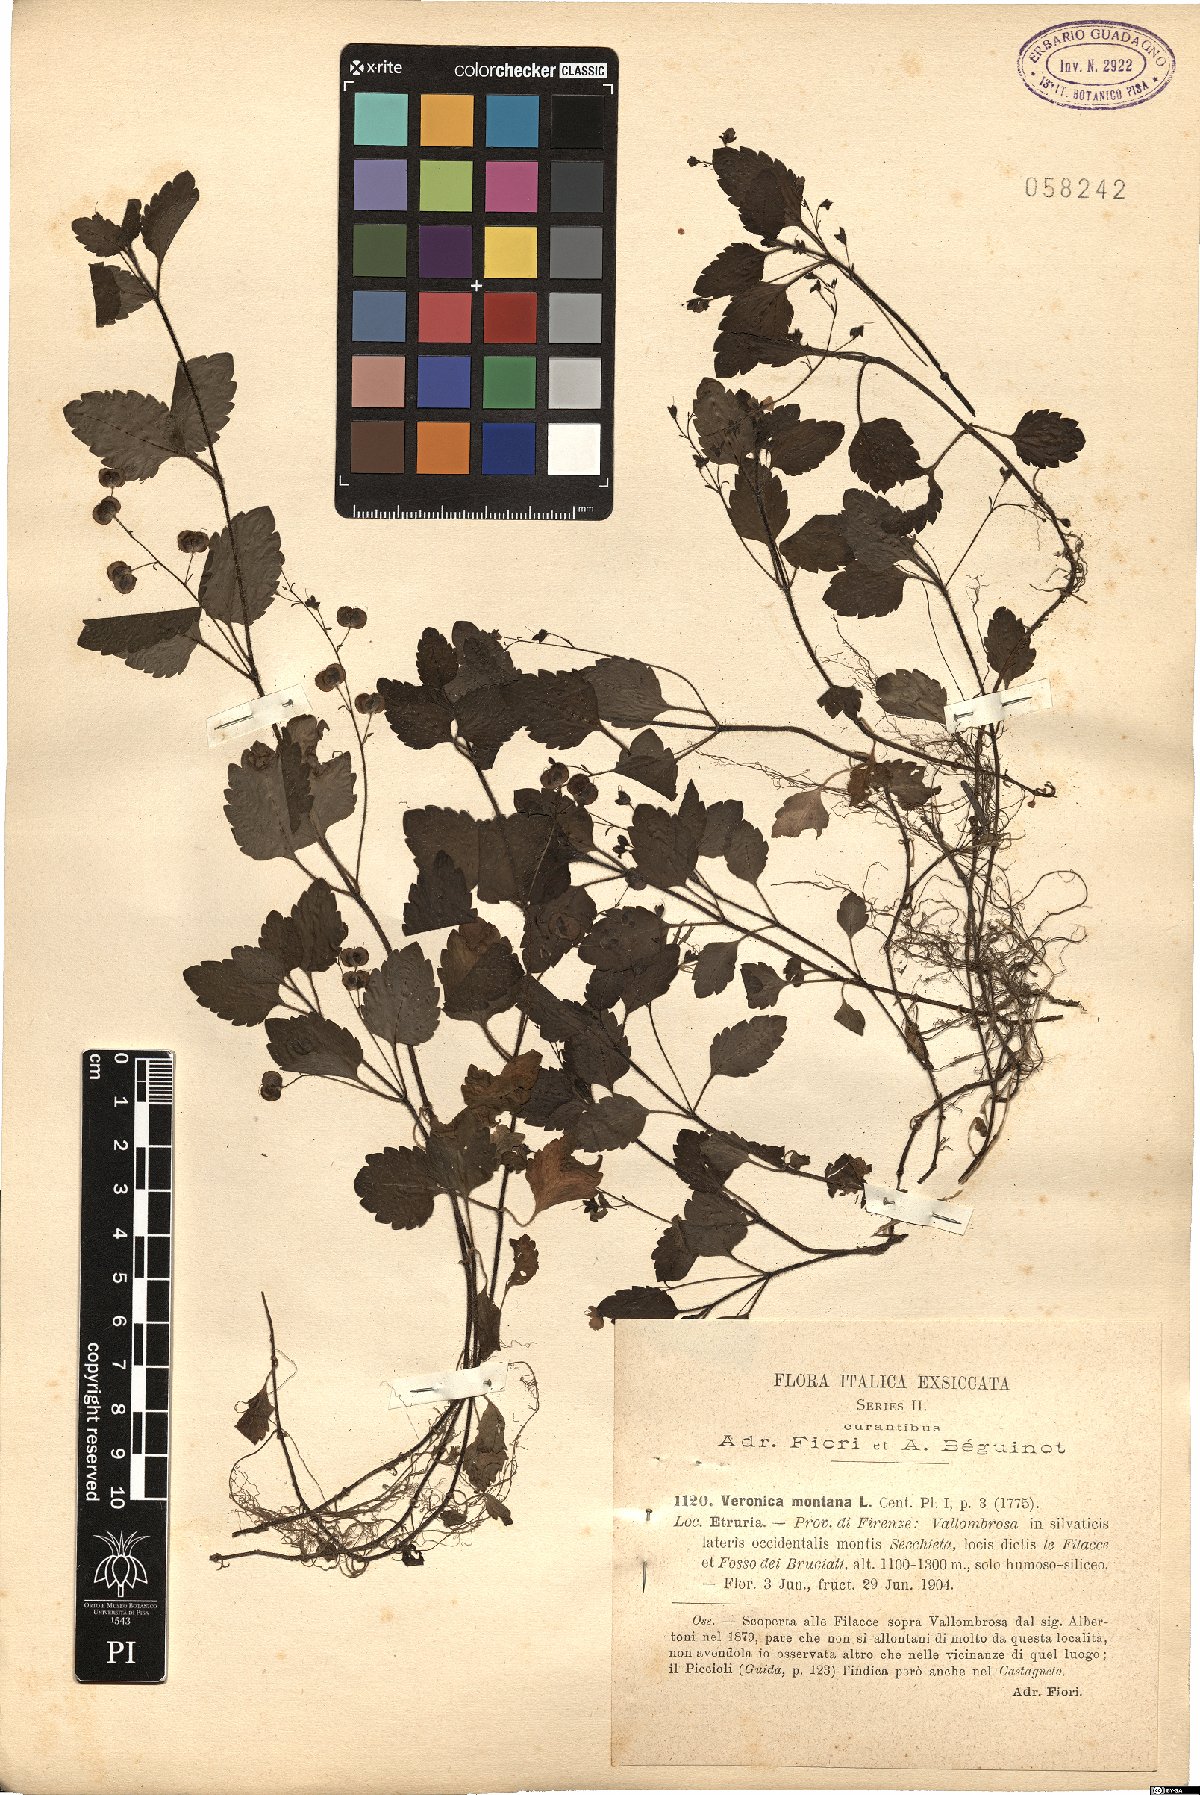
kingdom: Plantae
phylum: Tracheophyta
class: Magnoliopsida
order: Lamiales
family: Plantaginaceae
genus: Veronica
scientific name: Veronica montana
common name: Wood speedwell
